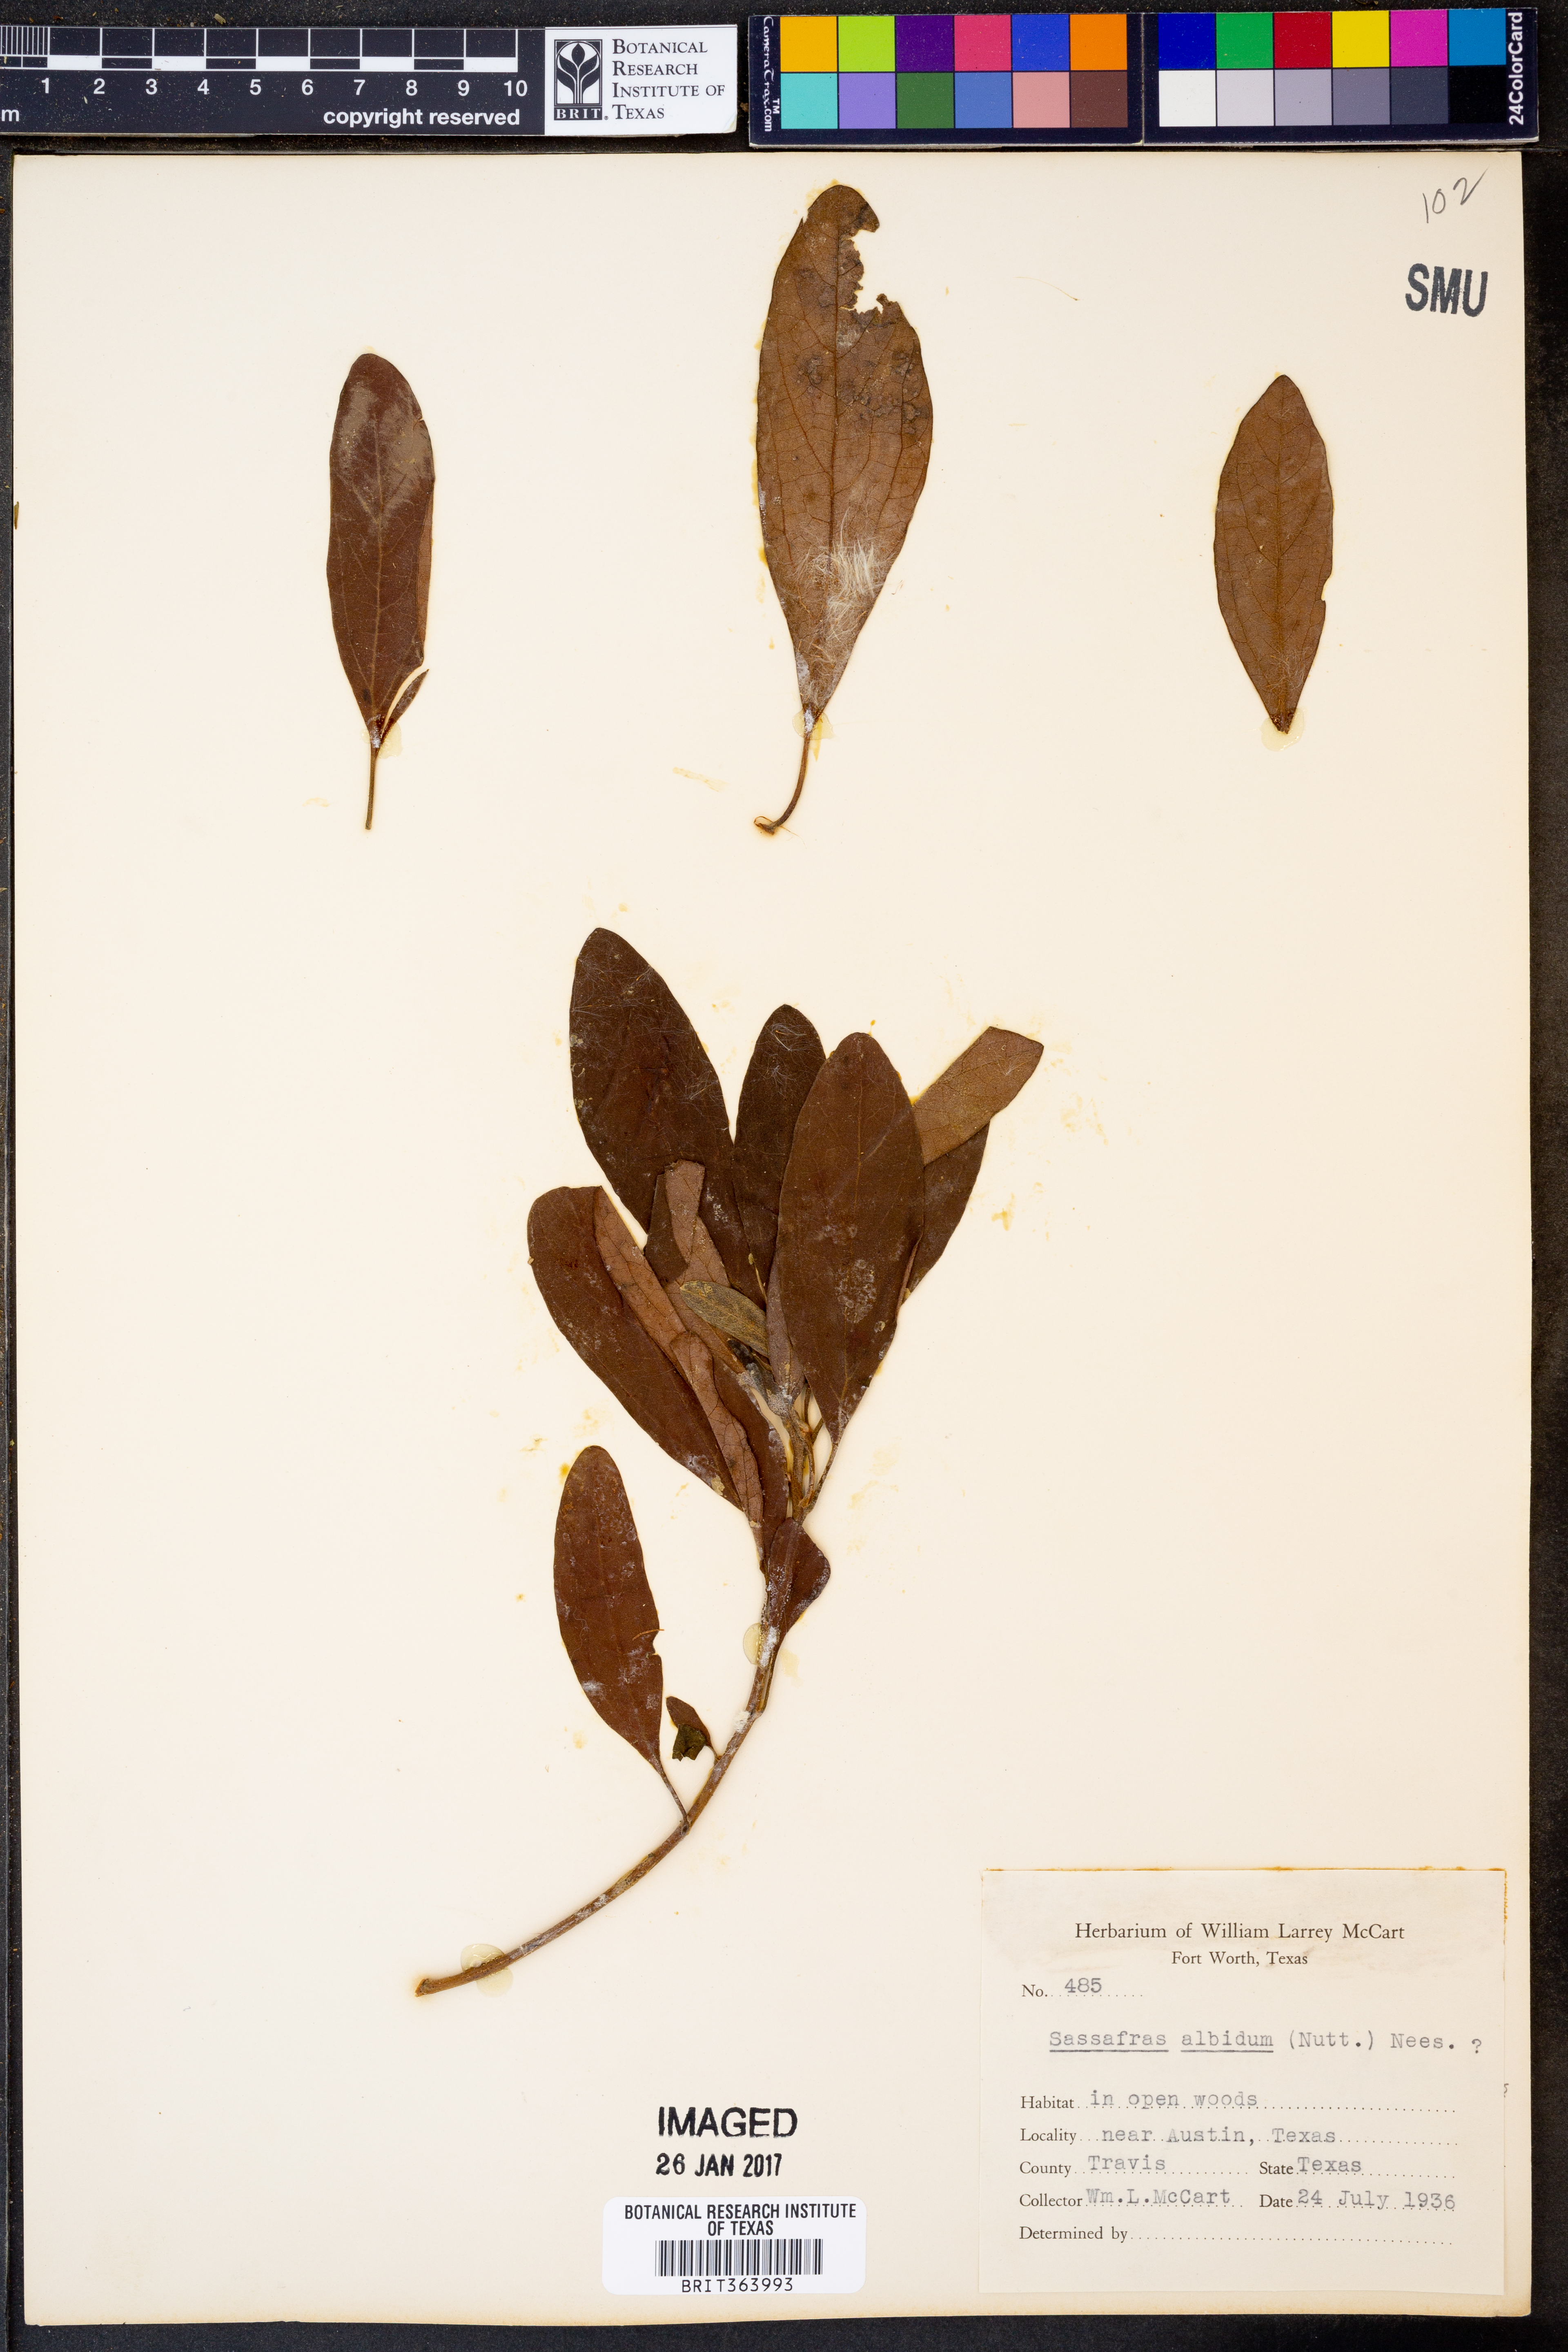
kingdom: Plantae
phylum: Tracheophyta
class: Magnoliopsida
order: Laurales
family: Lauraceae
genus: Sassafras
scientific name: Sassafras albidum
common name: Sassafras
